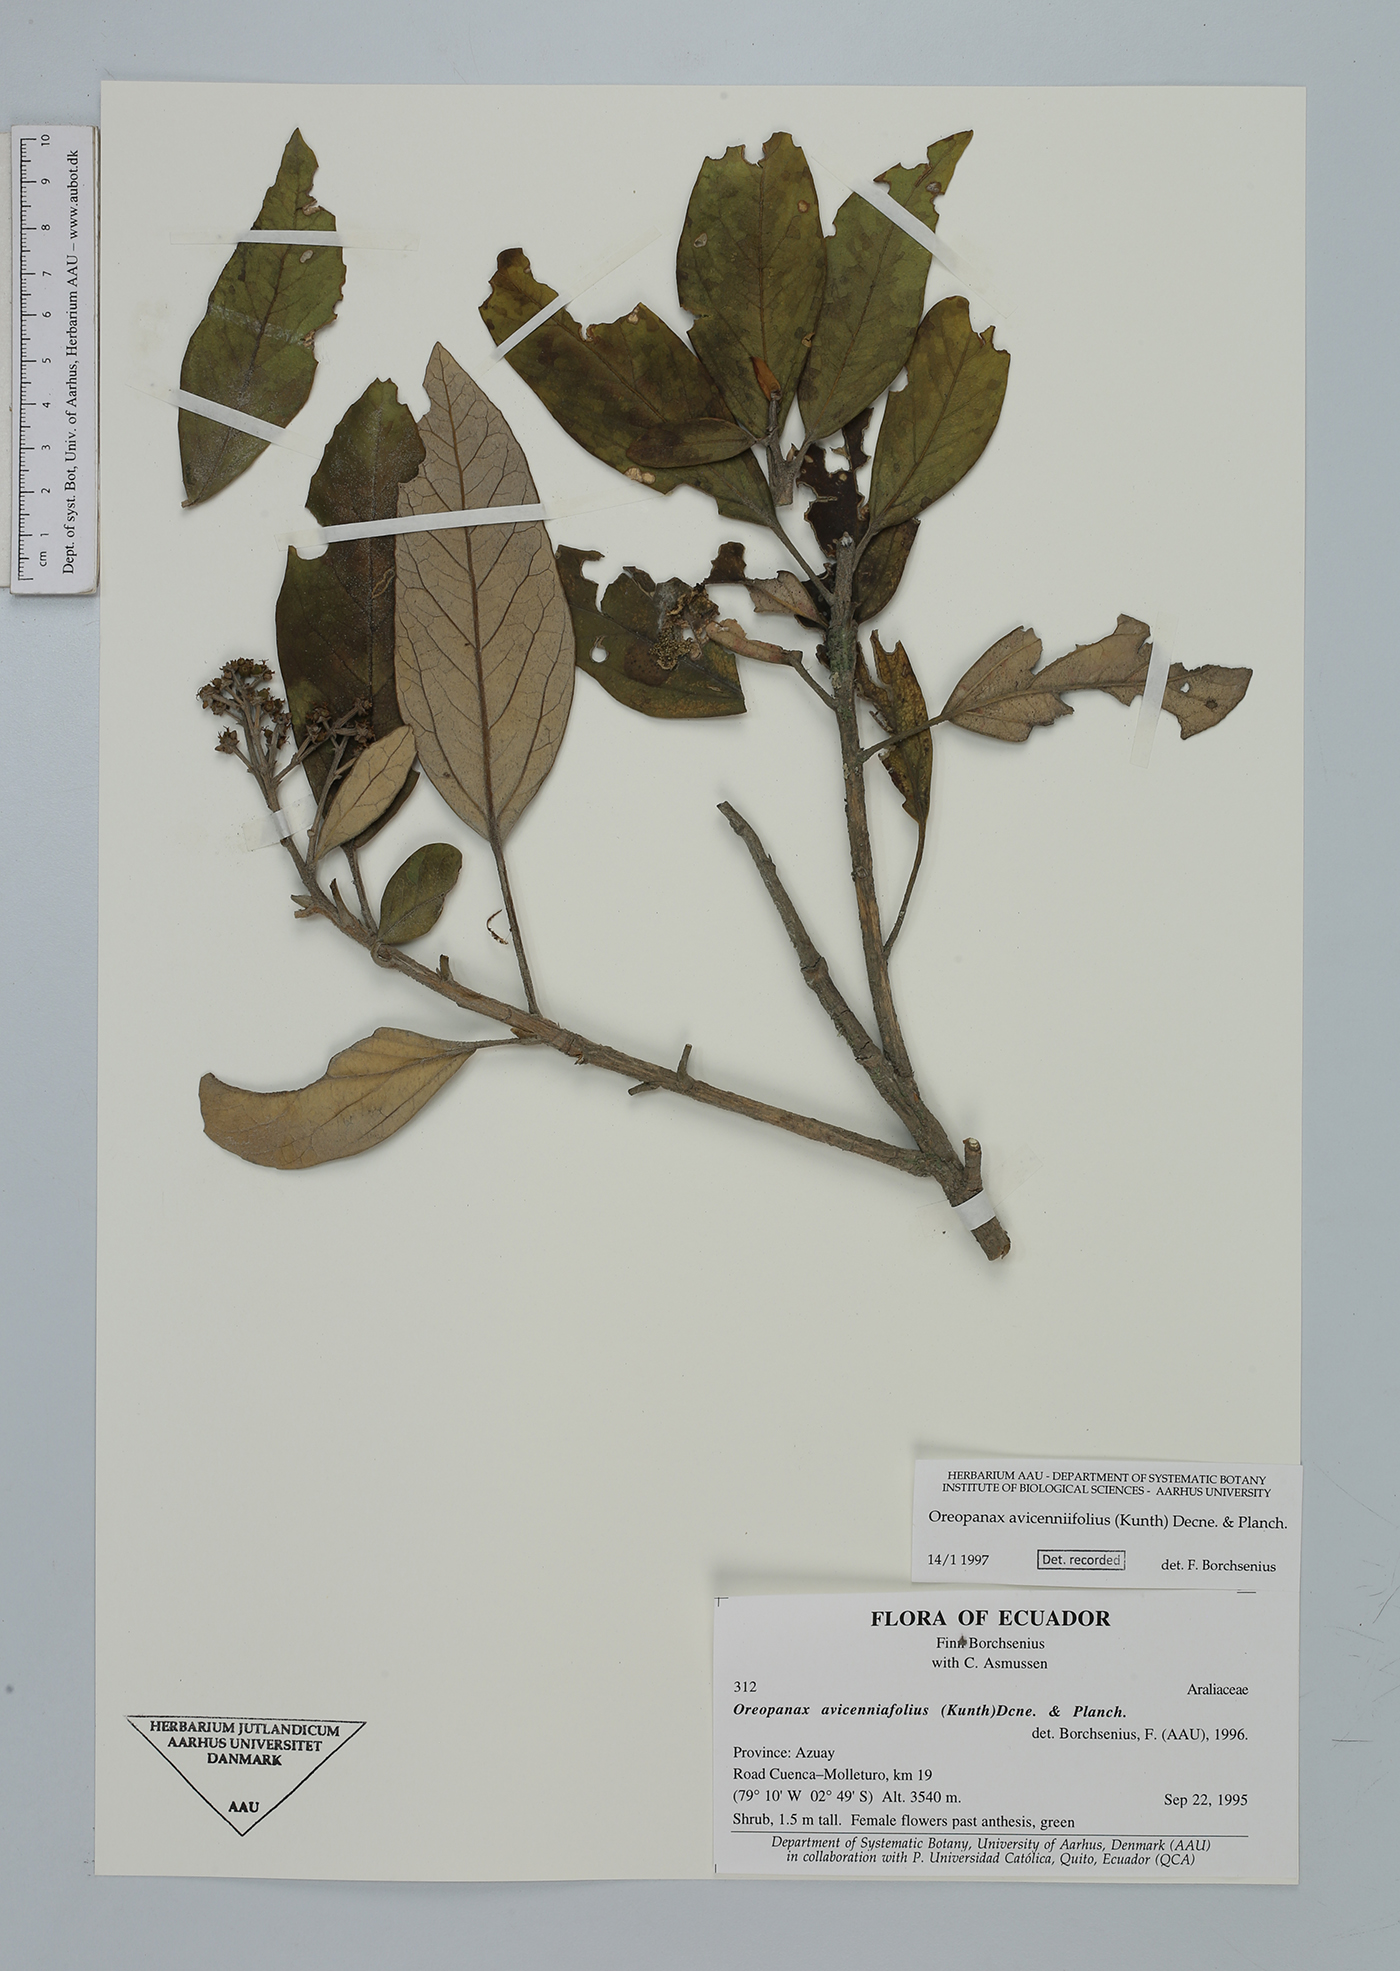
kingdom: Plantae
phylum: Tracheophyta
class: Magnoliopsida
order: Apiales
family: Araliaceae
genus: Oreopanax
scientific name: Oreopanax avicenniifolius
